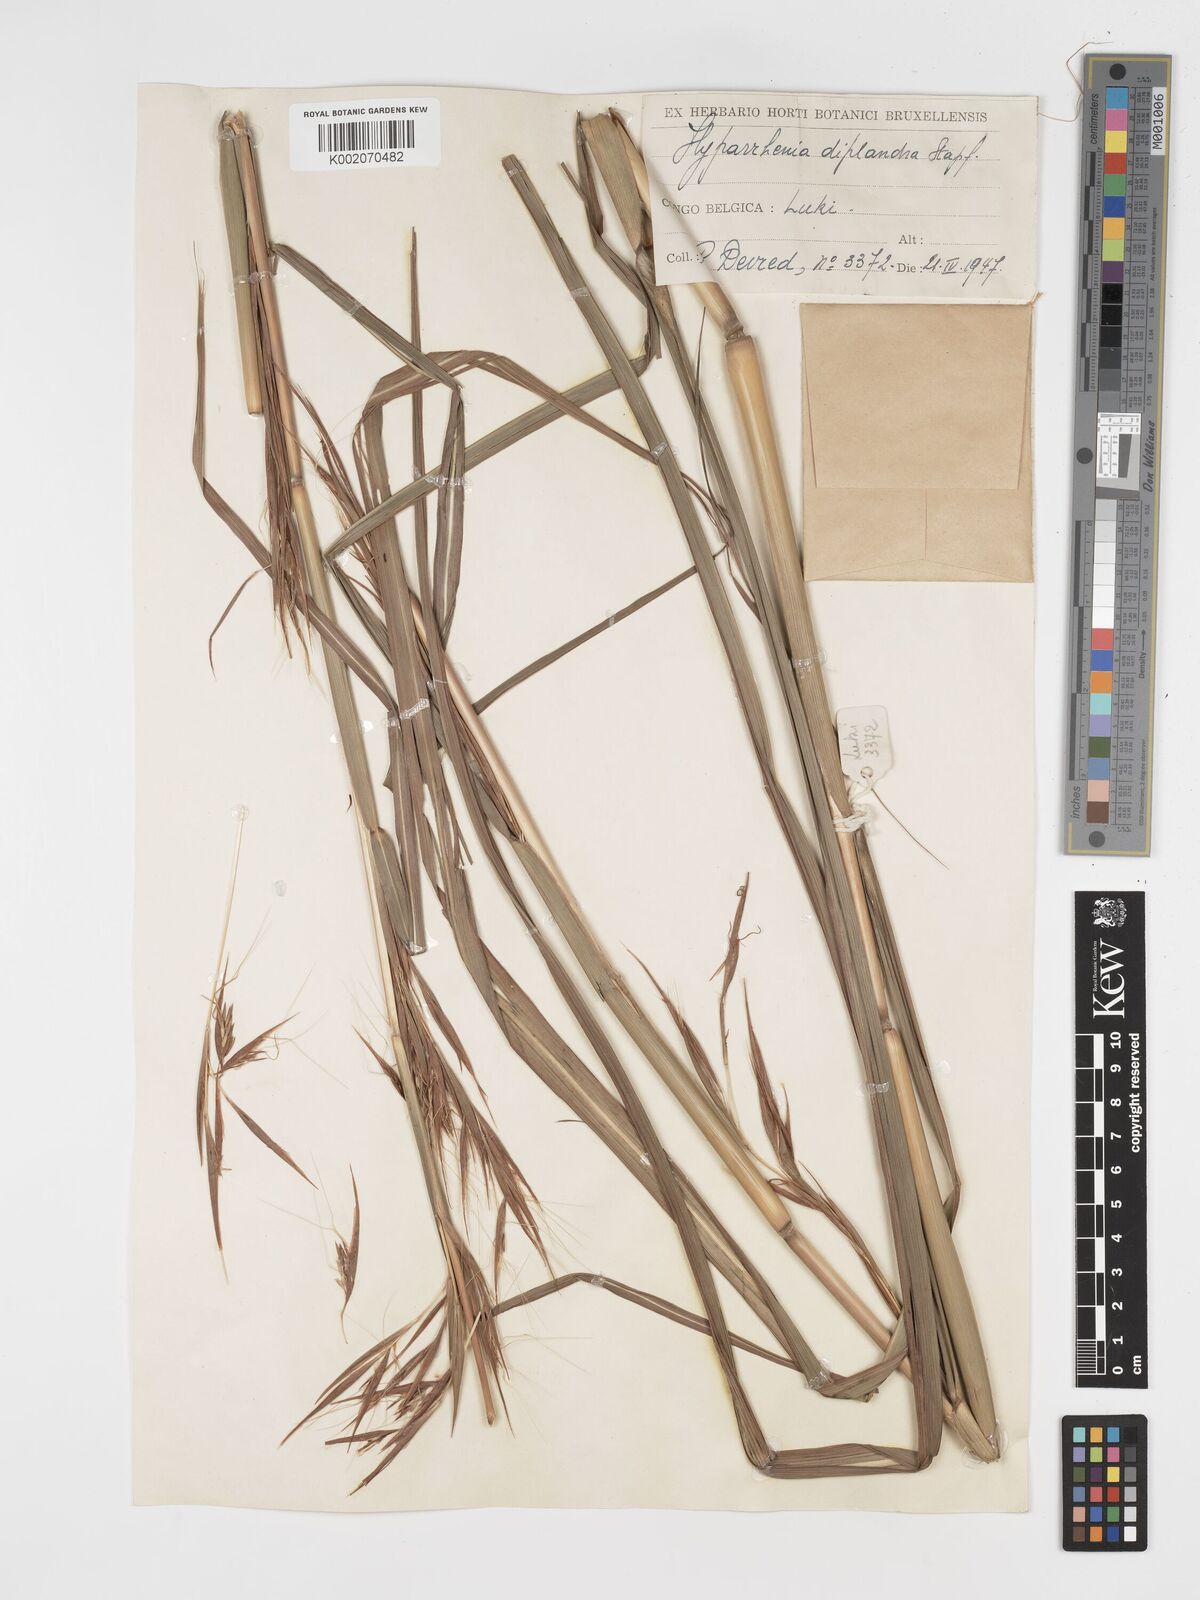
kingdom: Plantae
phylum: Tracheophyta
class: Liliopsida
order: Poales
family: Poaceae
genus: Hyparrhenia
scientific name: Hyparrhenia diplandra
